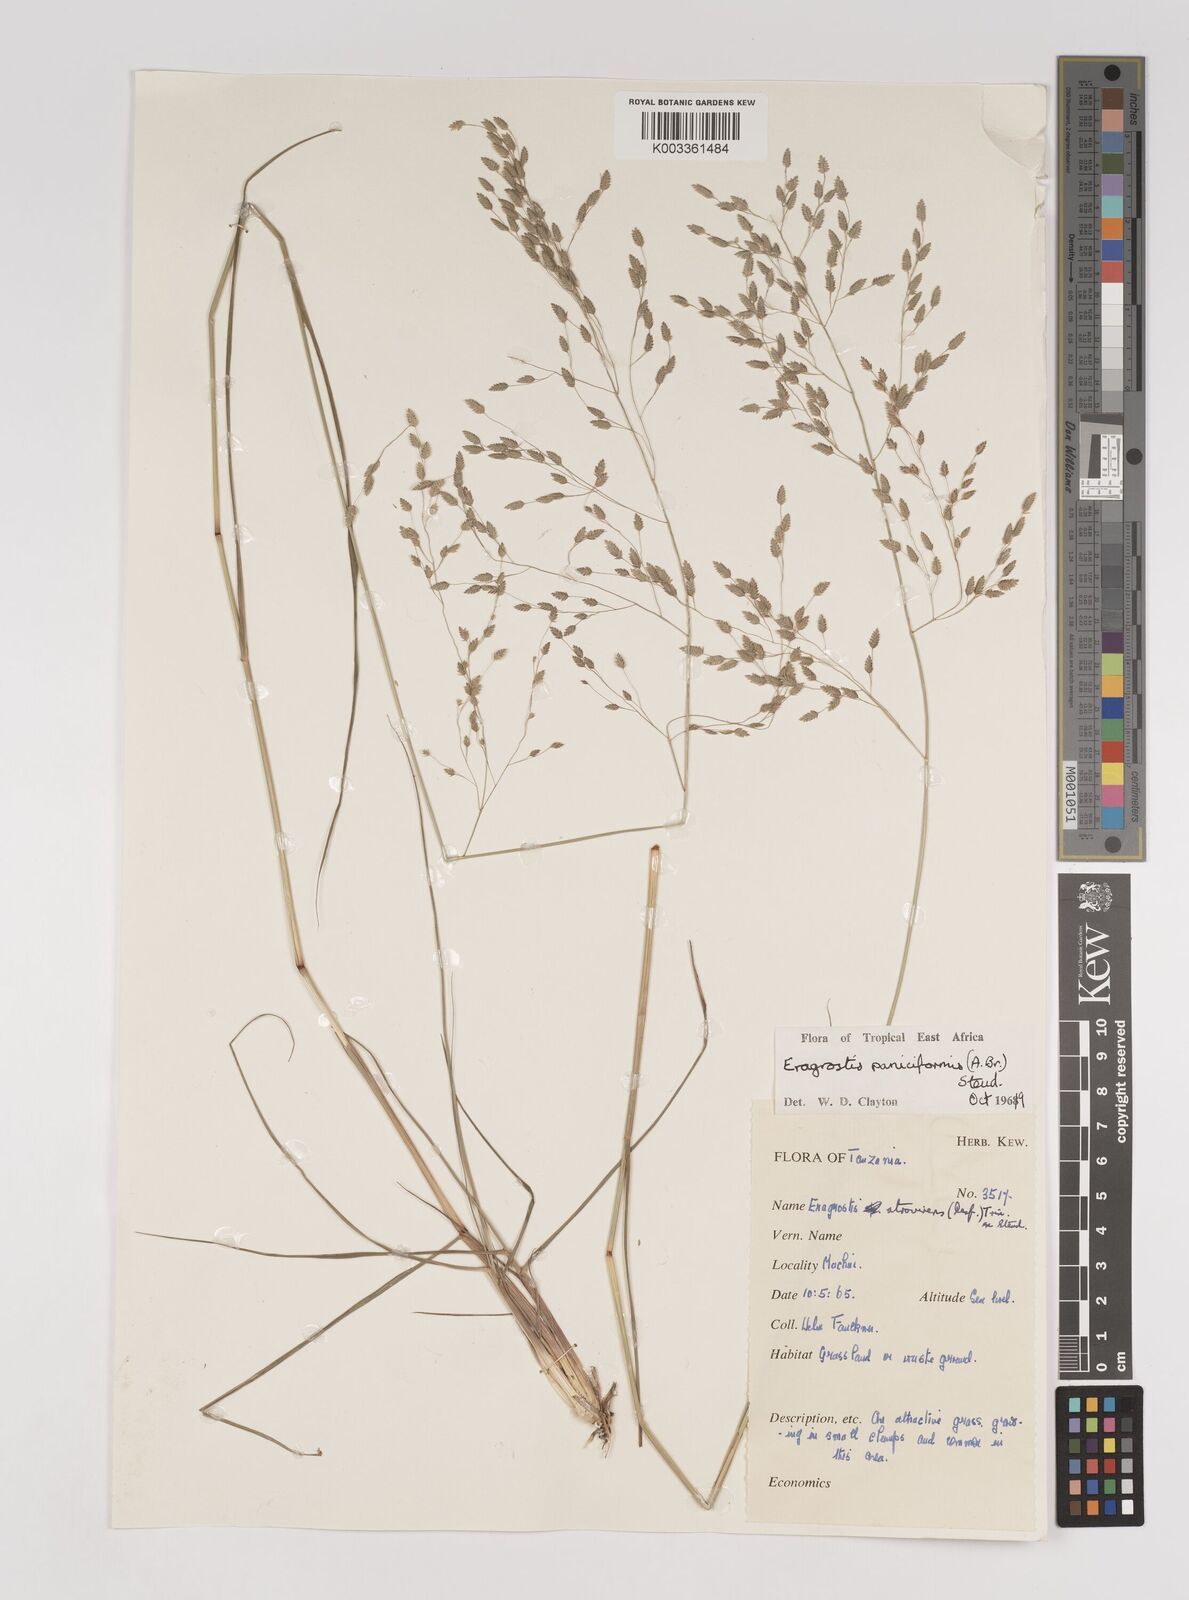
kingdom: Plantae
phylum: Tracheophyta
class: Liliopsida
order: Poales
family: Poaceae
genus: Eragrostis
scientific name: Eragrostis paniciformis
